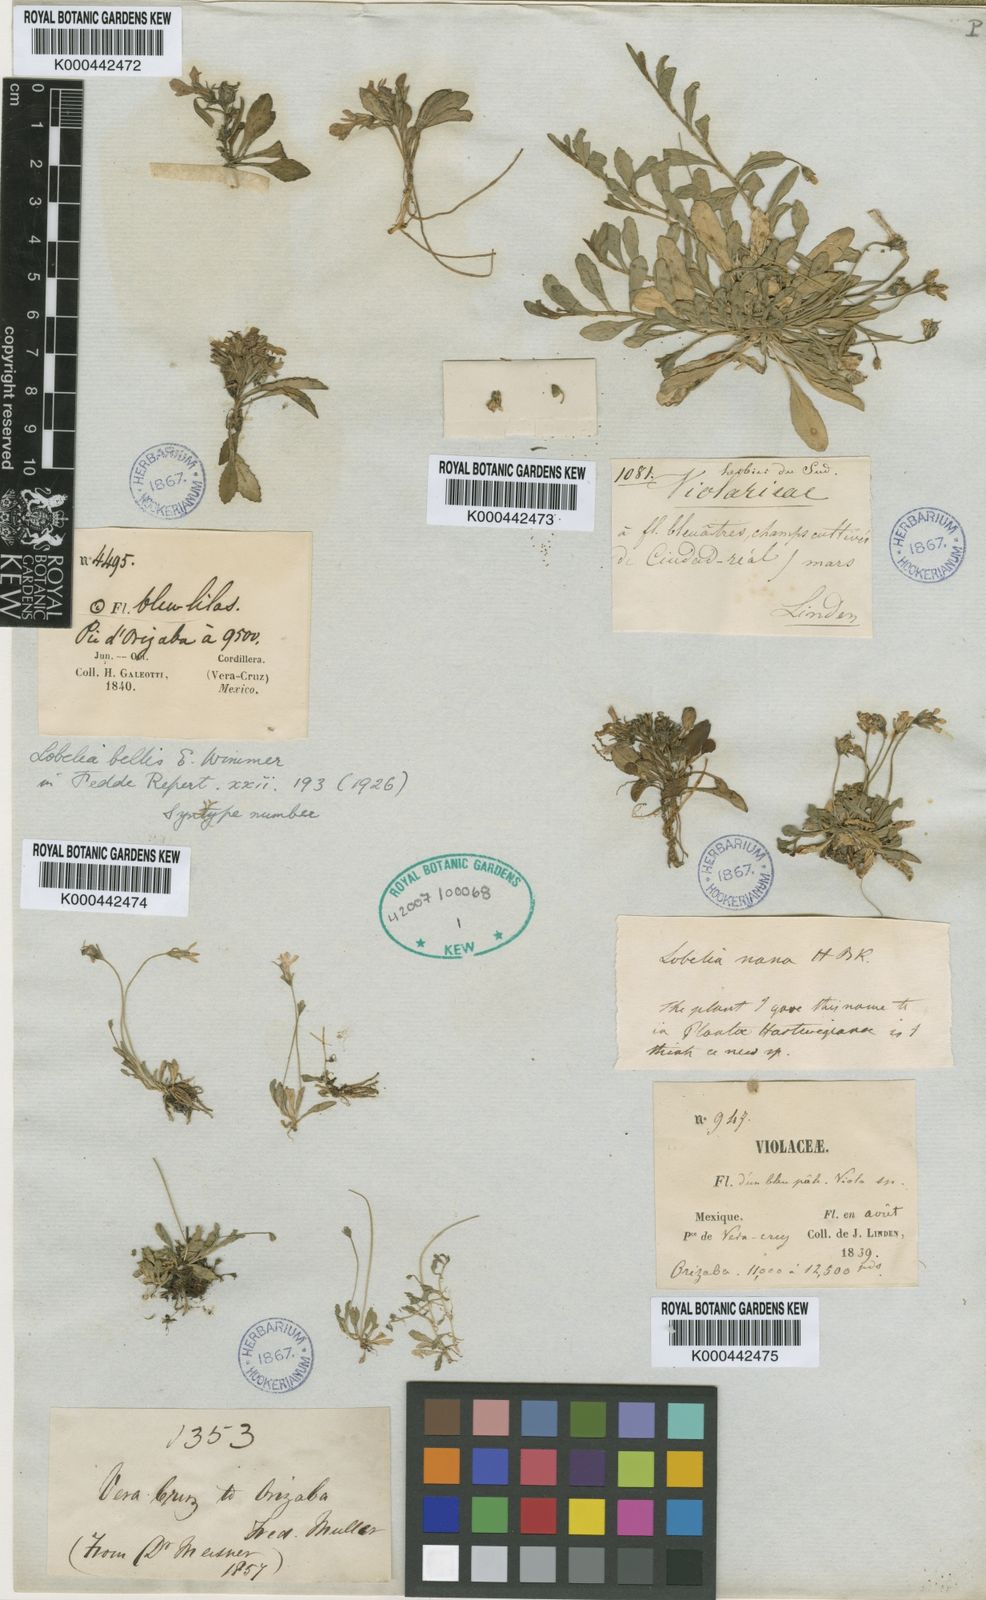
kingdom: Plantae
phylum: Tracheophyta
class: Magnoliopsida
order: Asterales
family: Campanulaceae
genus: Lobelia
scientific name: Lobelia nana
